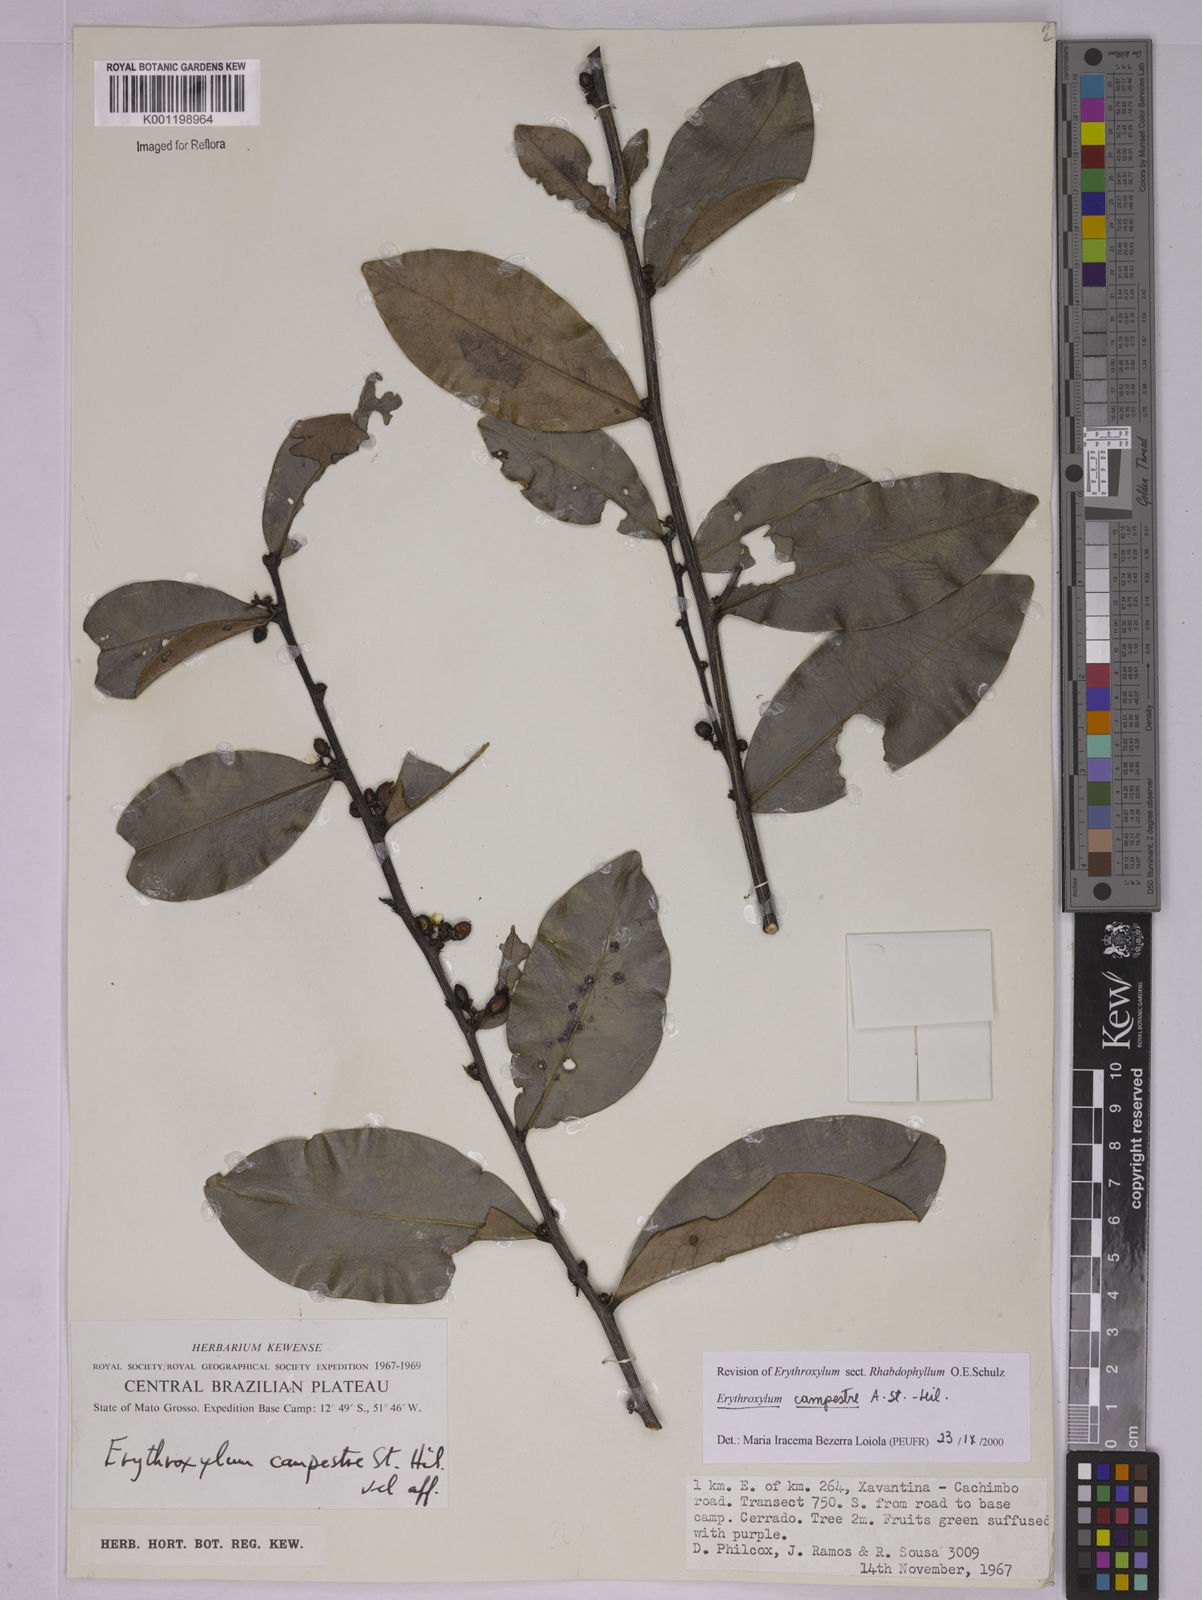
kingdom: Plantae
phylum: Tracheophyta
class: Magnoliopsida
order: Malpighiales
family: Erythroxylaceae
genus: Erythroxylum
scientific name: Erythroxylum campestre
